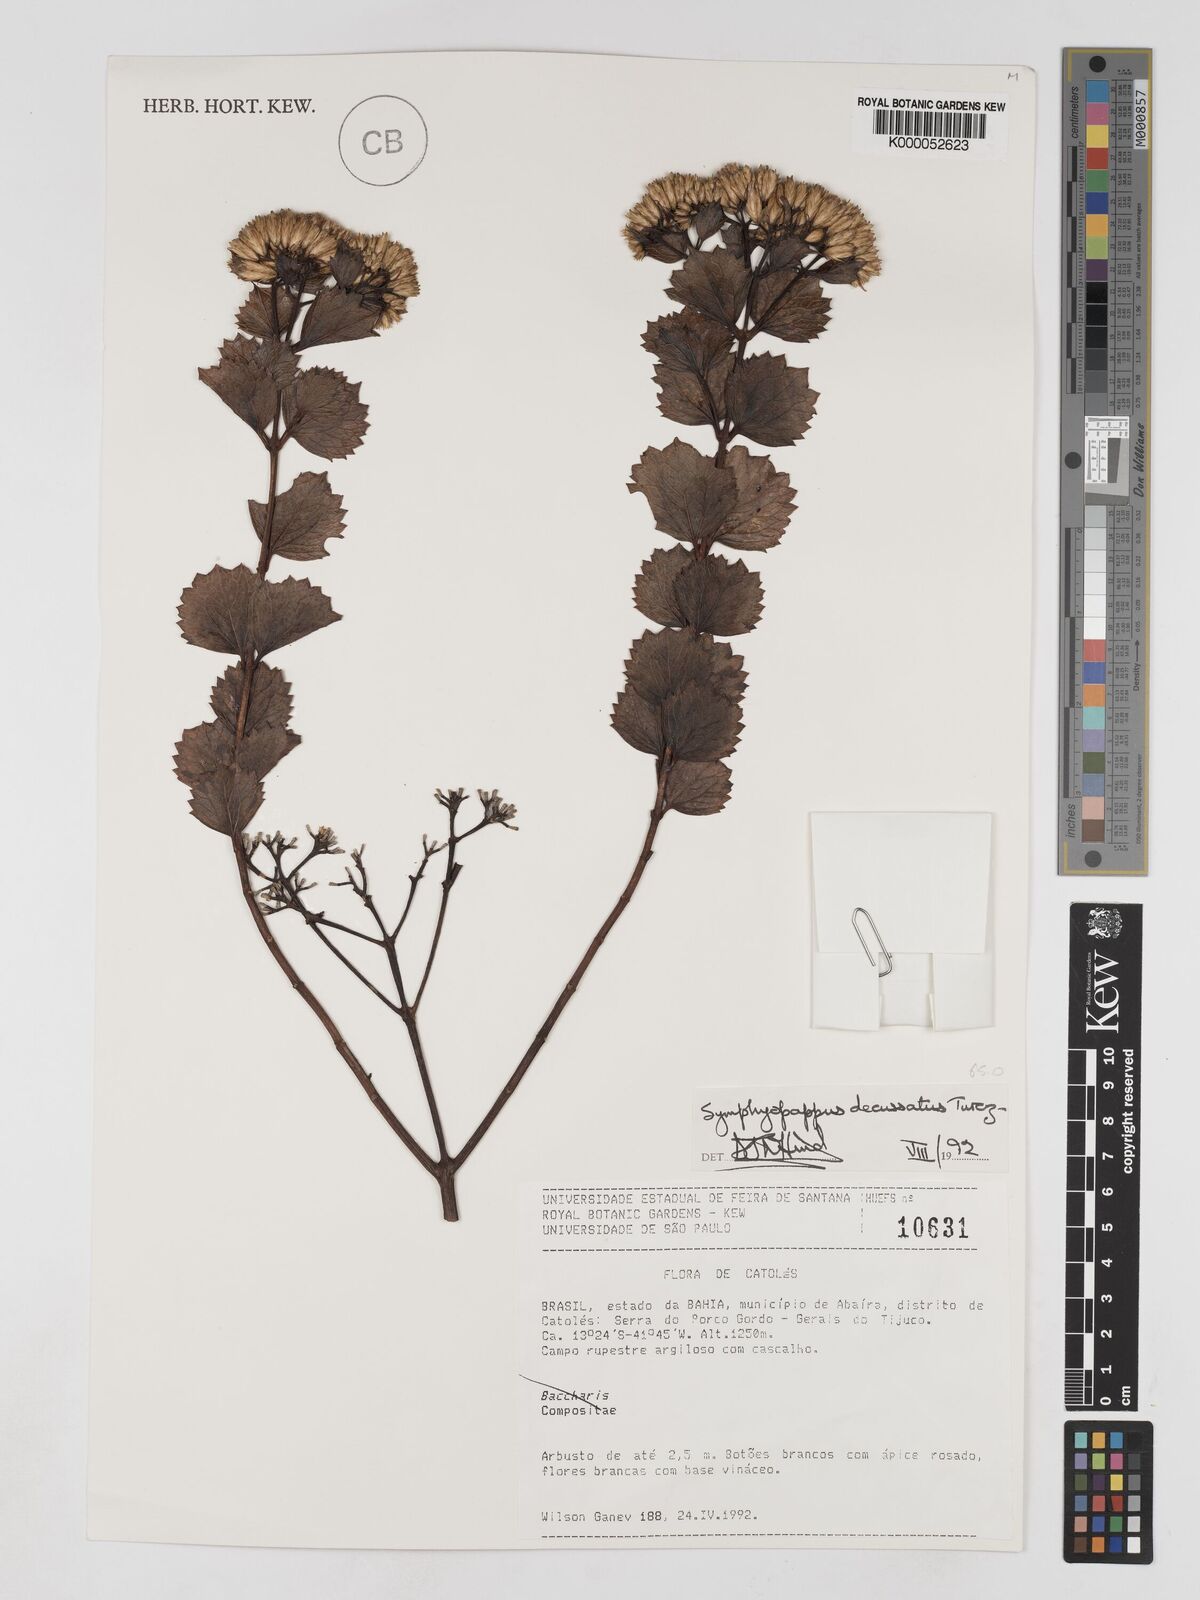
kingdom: Plantae
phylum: Tracheophyta
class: Magnoliopsida
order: Asterales
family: Asteraceae
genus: Symphyopappus
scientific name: Symphyopappus decussatus
